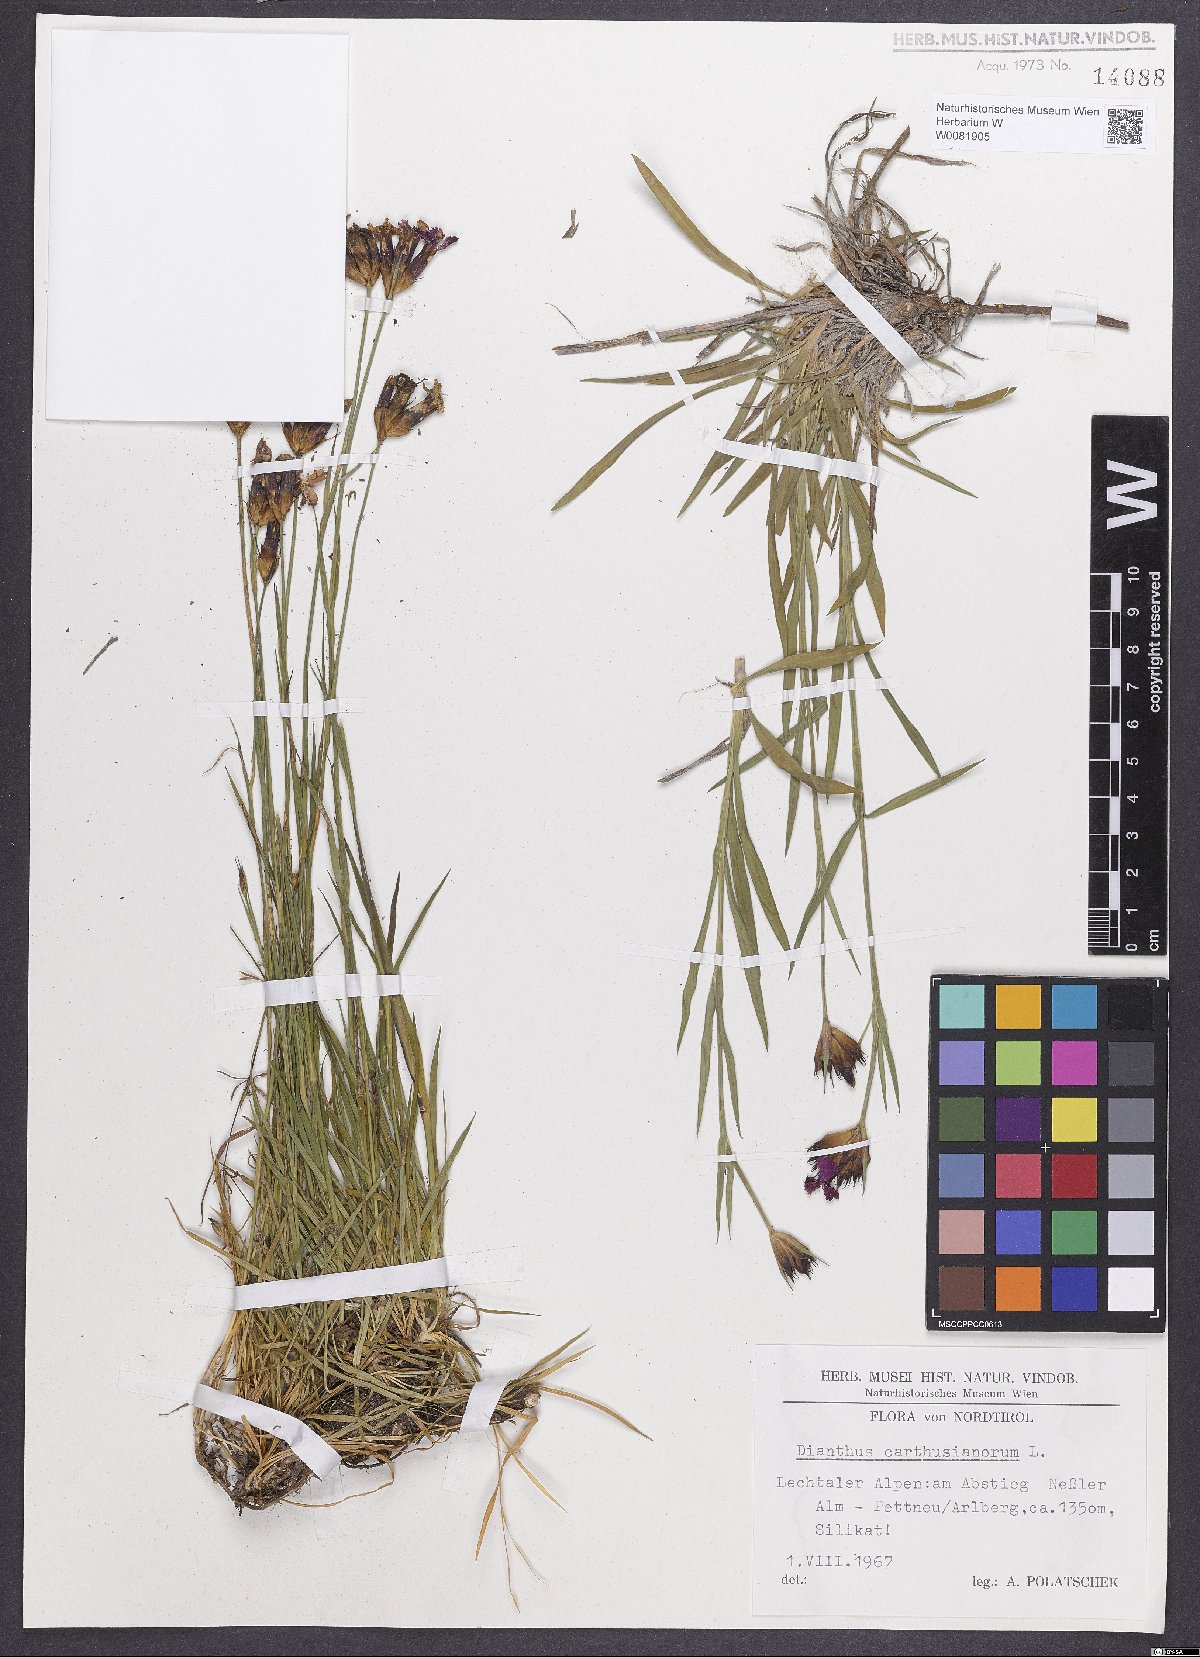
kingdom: Plantae
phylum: Tracheophyta
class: Magnoliopsida
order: Caryophyllales
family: Caryophyllaceae
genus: Dianthus
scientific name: Dianthus carthusianorum
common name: Carthusian pink
